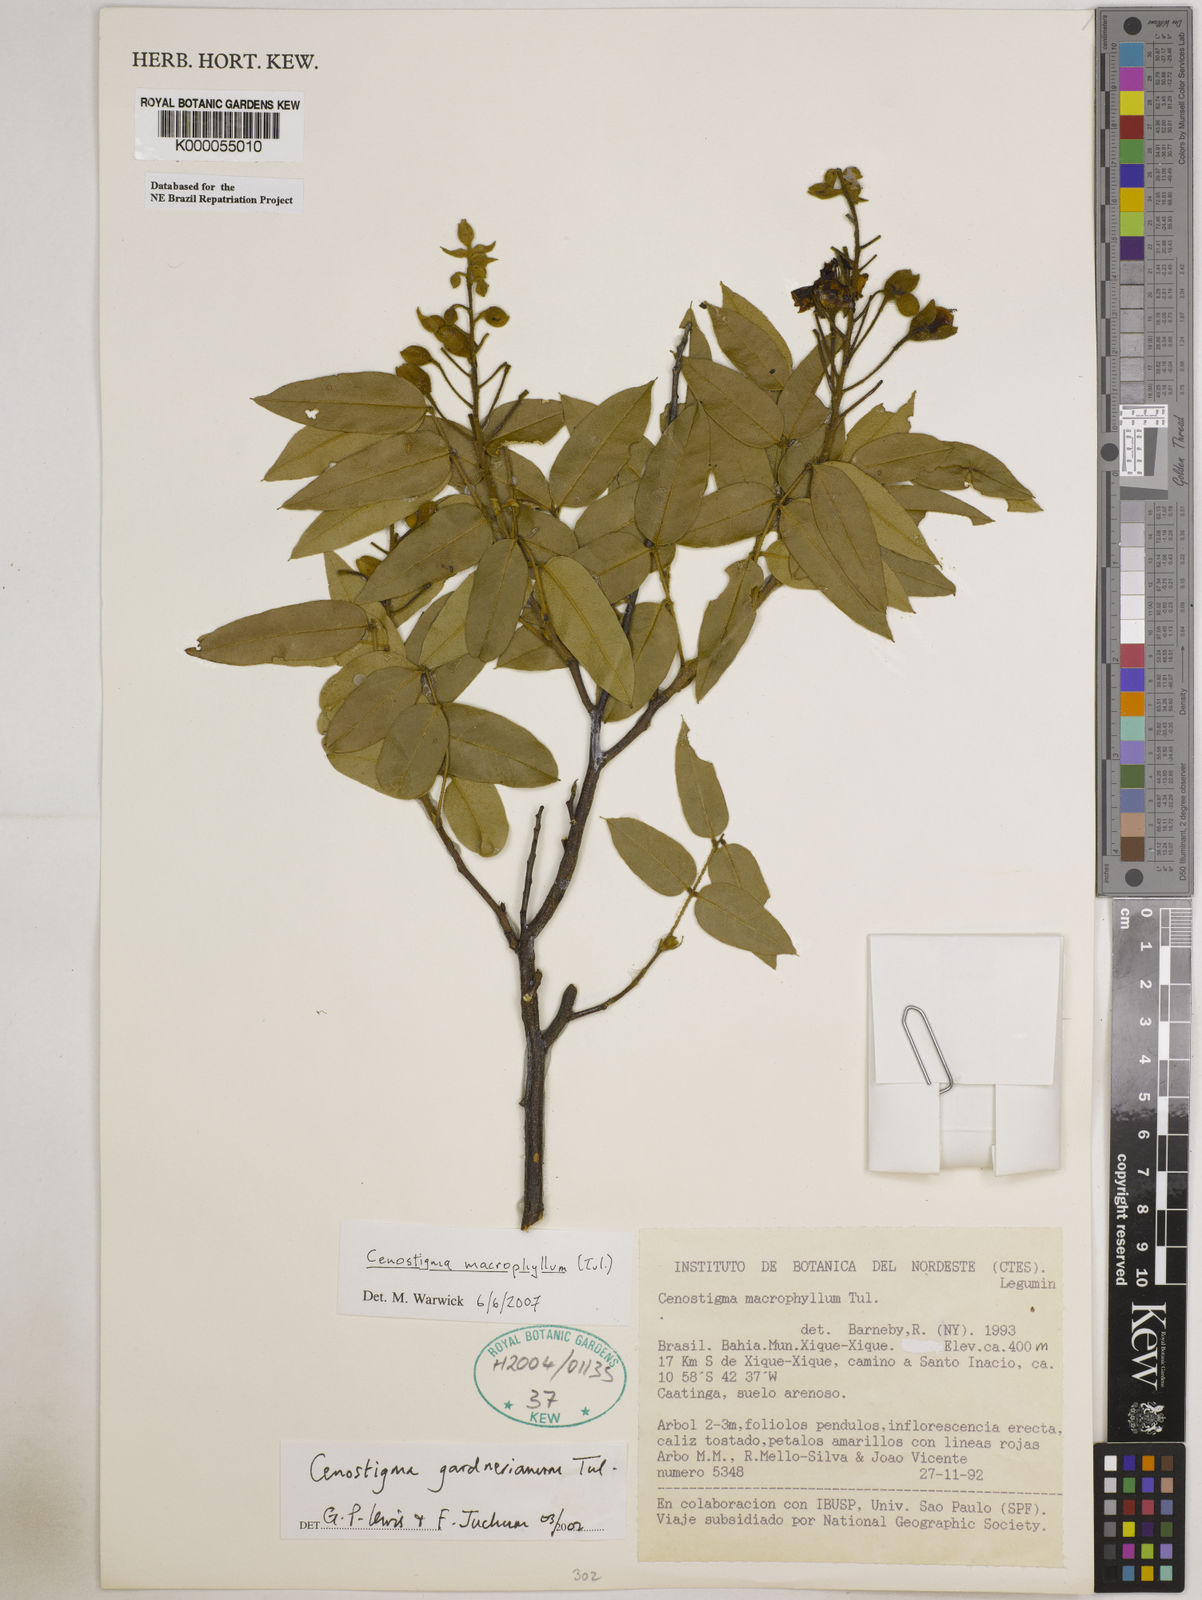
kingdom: Plantae
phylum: Tracheophyta
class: Magnoliopsida
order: Fabales
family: Fabaceae
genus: Cenostigma
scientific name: Cenostigma macrophyllum
